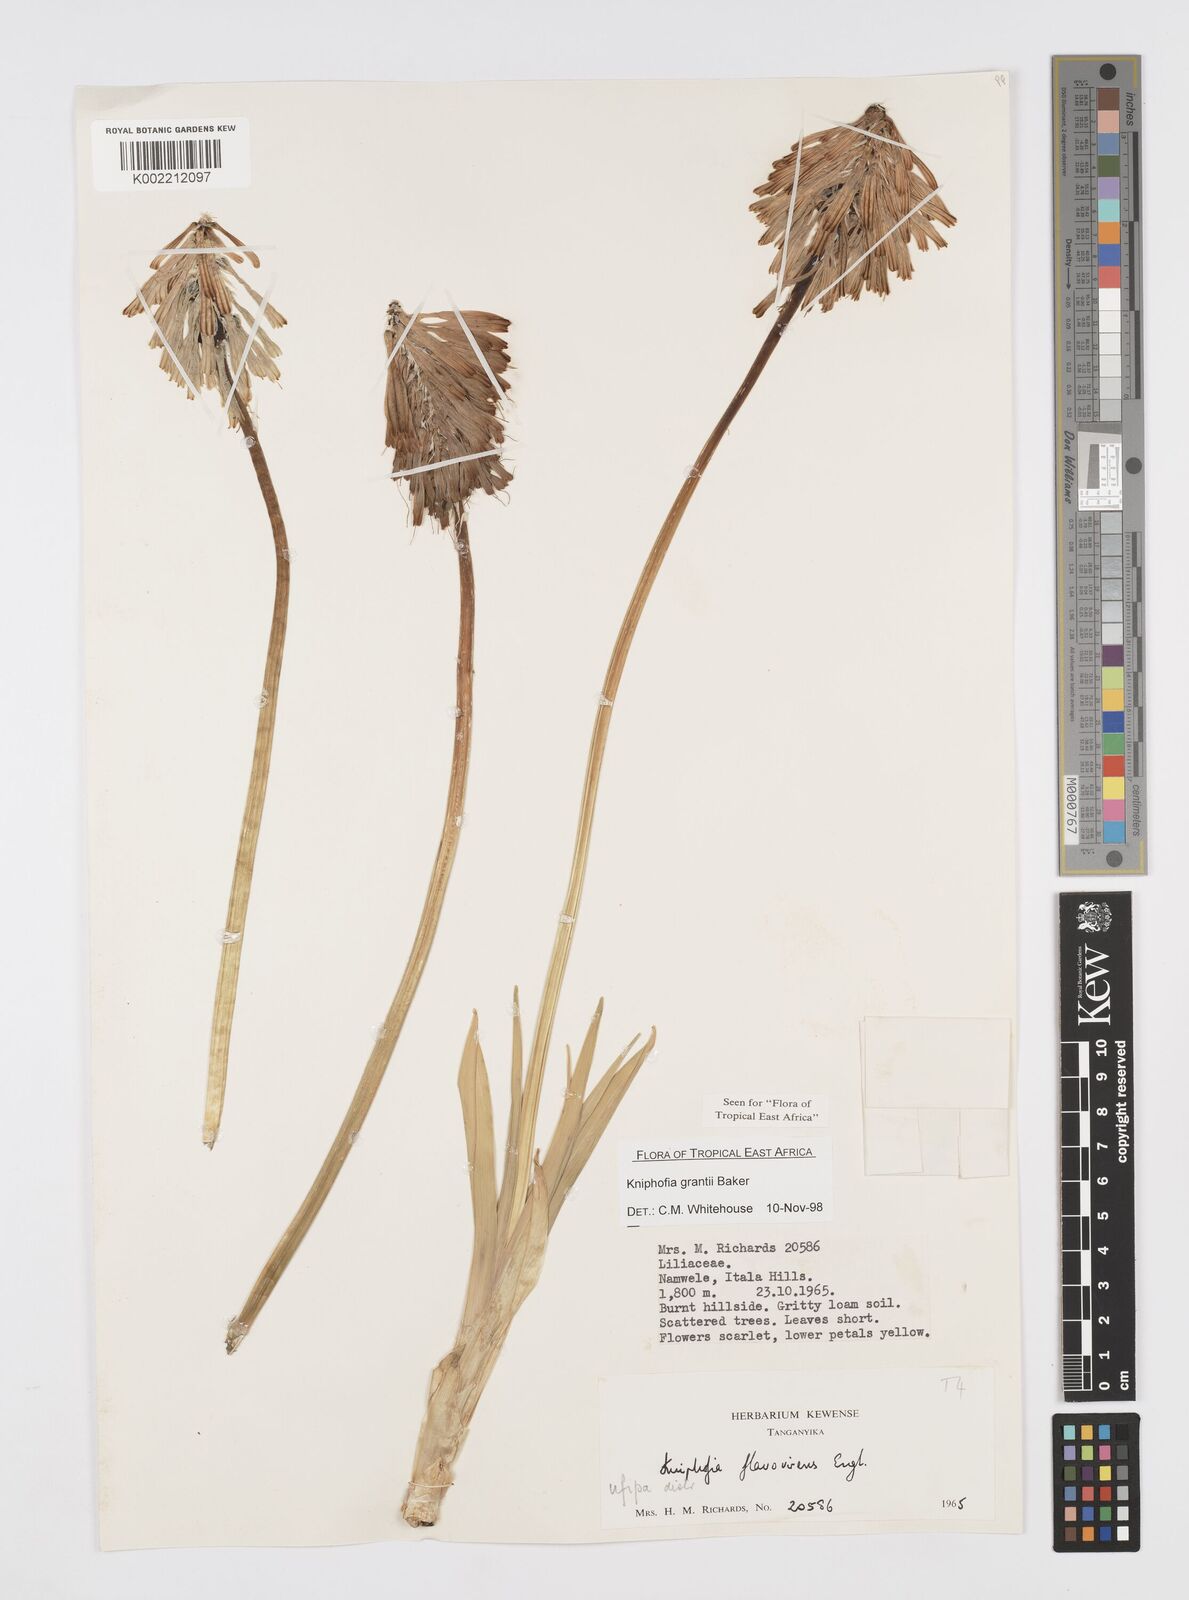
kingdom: Plantae
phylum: Tracheophyta
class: Liliopsida
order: Asparagales
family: Asphodelaceae
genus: Kniphofia
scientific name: Kniphofia grantii
